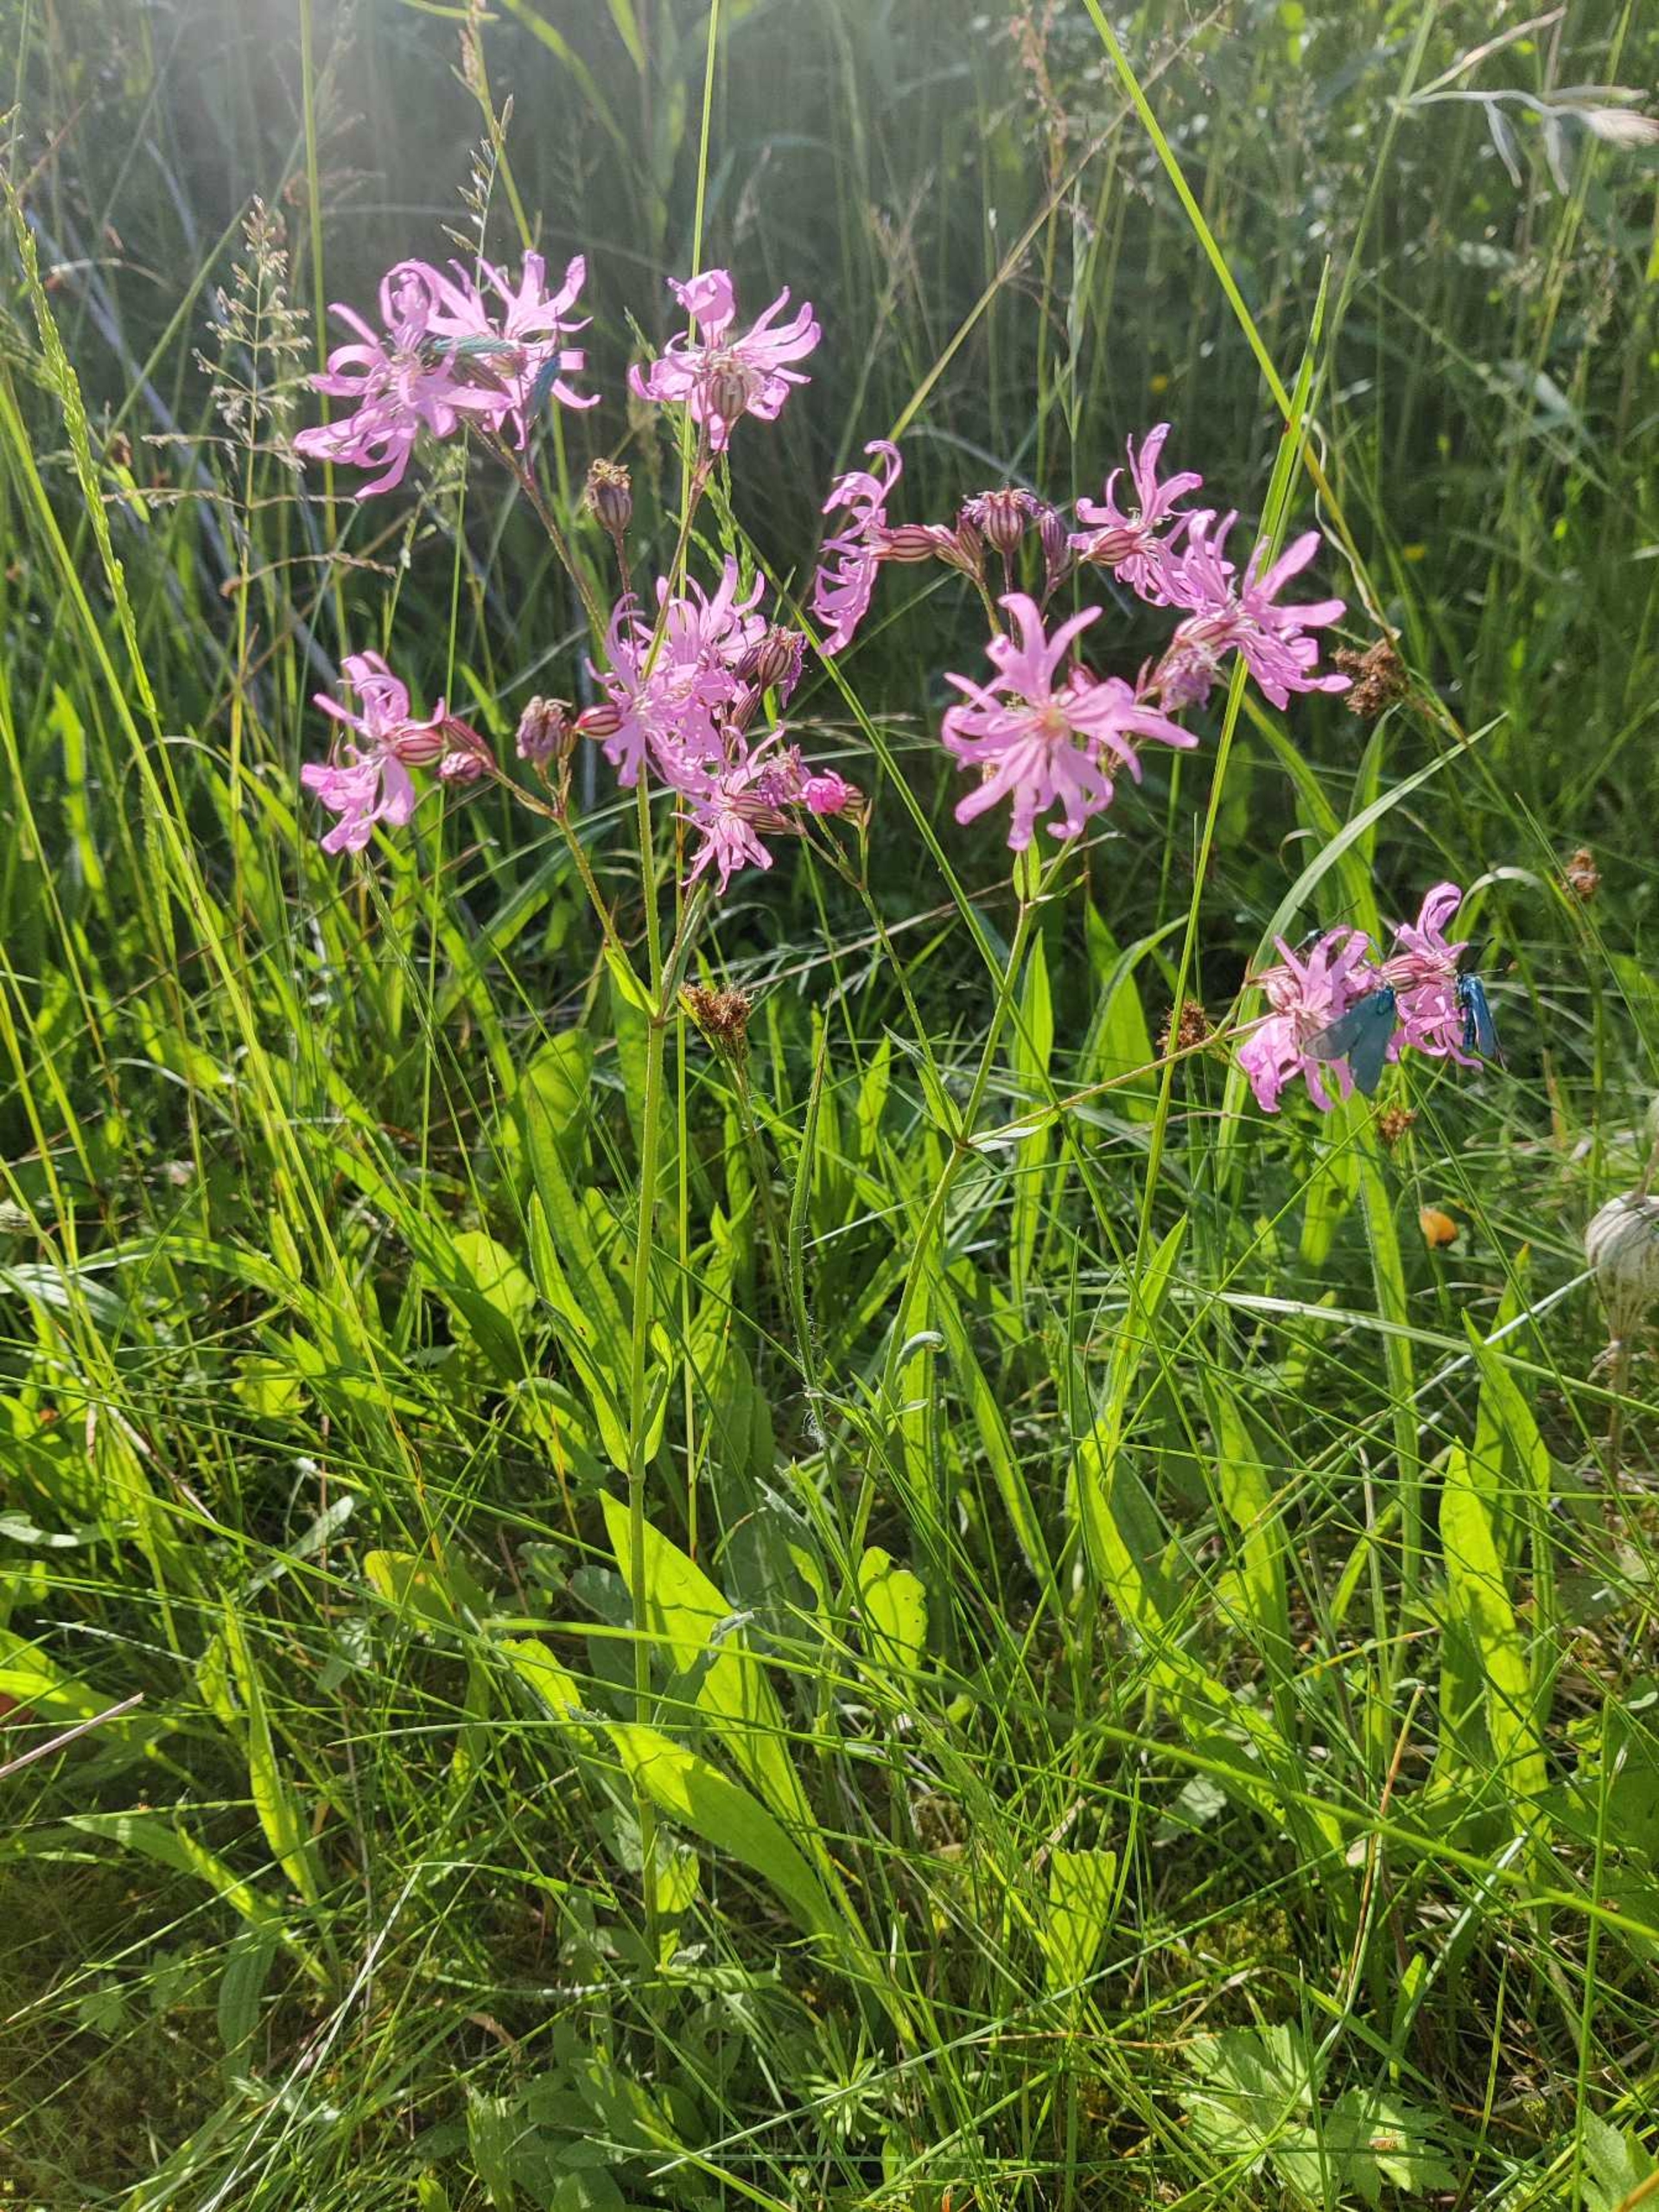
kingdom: Plantae
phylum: Tracheophyta
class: Magnoliopsida
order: Caryophyllales
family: Caryophyllaceae
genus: Silene
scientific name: Silene flos-cuculi
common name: Trævlekrone
